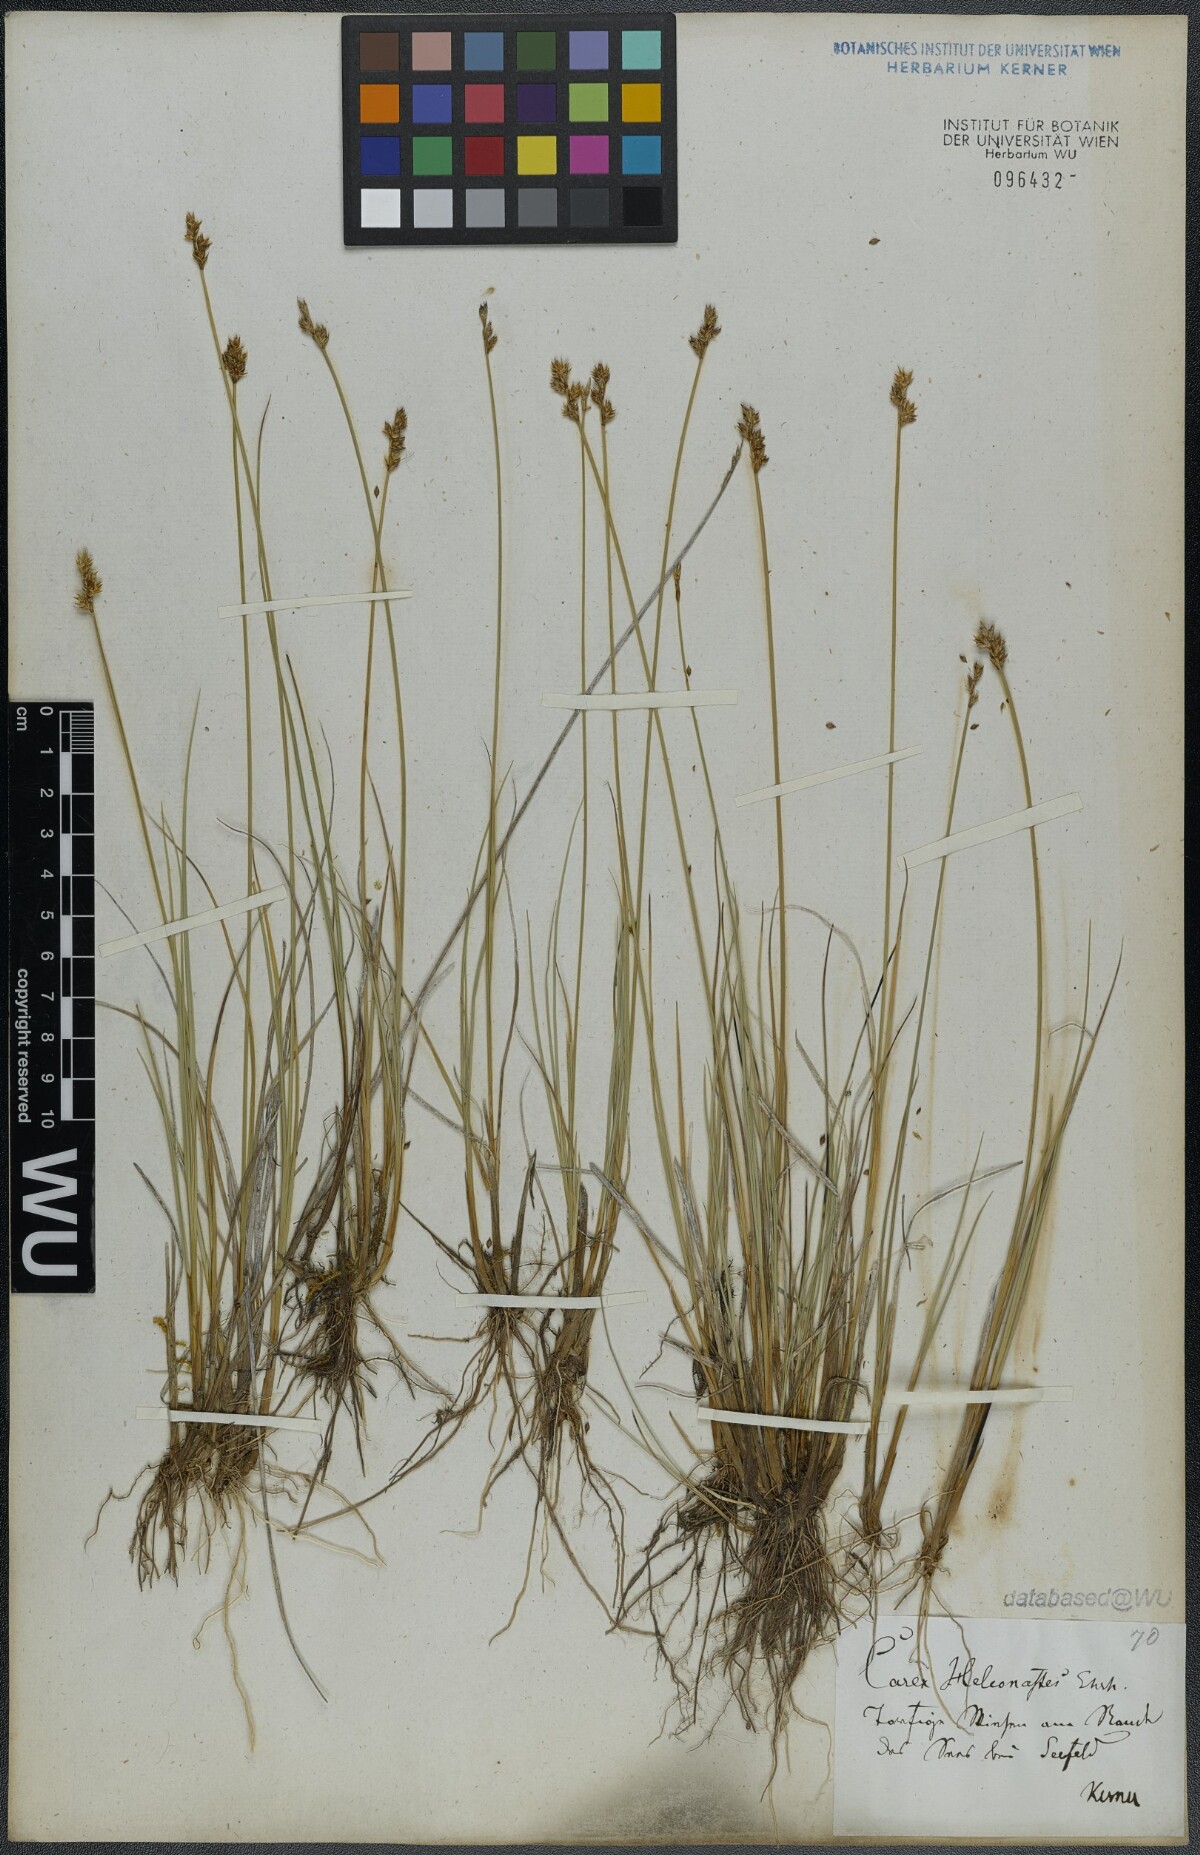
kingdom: Plantae
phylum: Tracheophyta
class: Liliopsida
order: Poales
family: Cyperaceae
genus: Carex
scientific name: Carex heleonastes
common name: Hudson bay sedge
